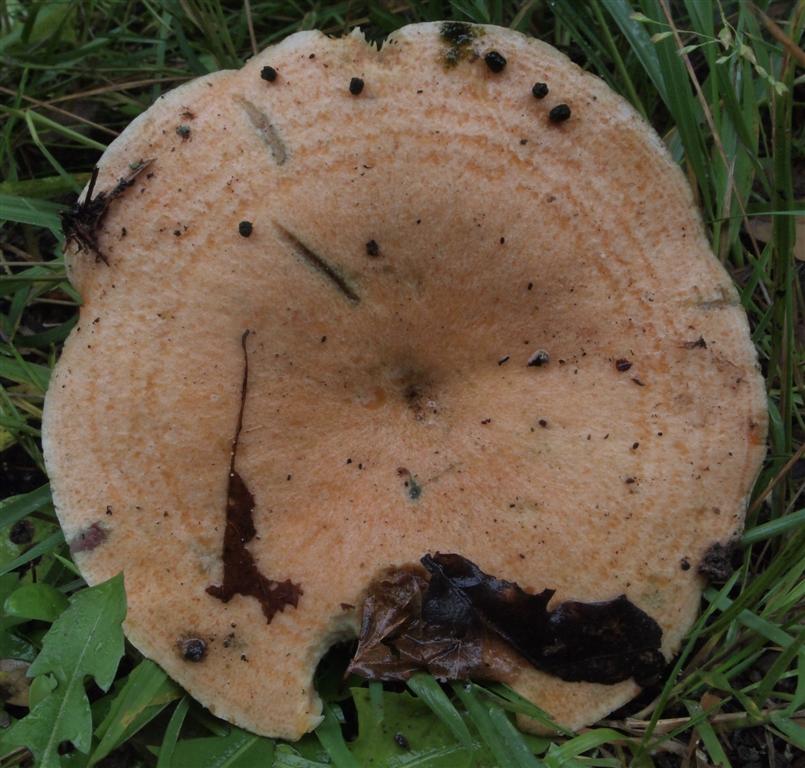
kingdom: Fungi
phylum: Basidiomycota
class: Agaricomycetes
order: Russulales
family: Russulaceae
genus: Lactarius
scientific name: Lactarius deterrimus
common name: gran-mælkehat
